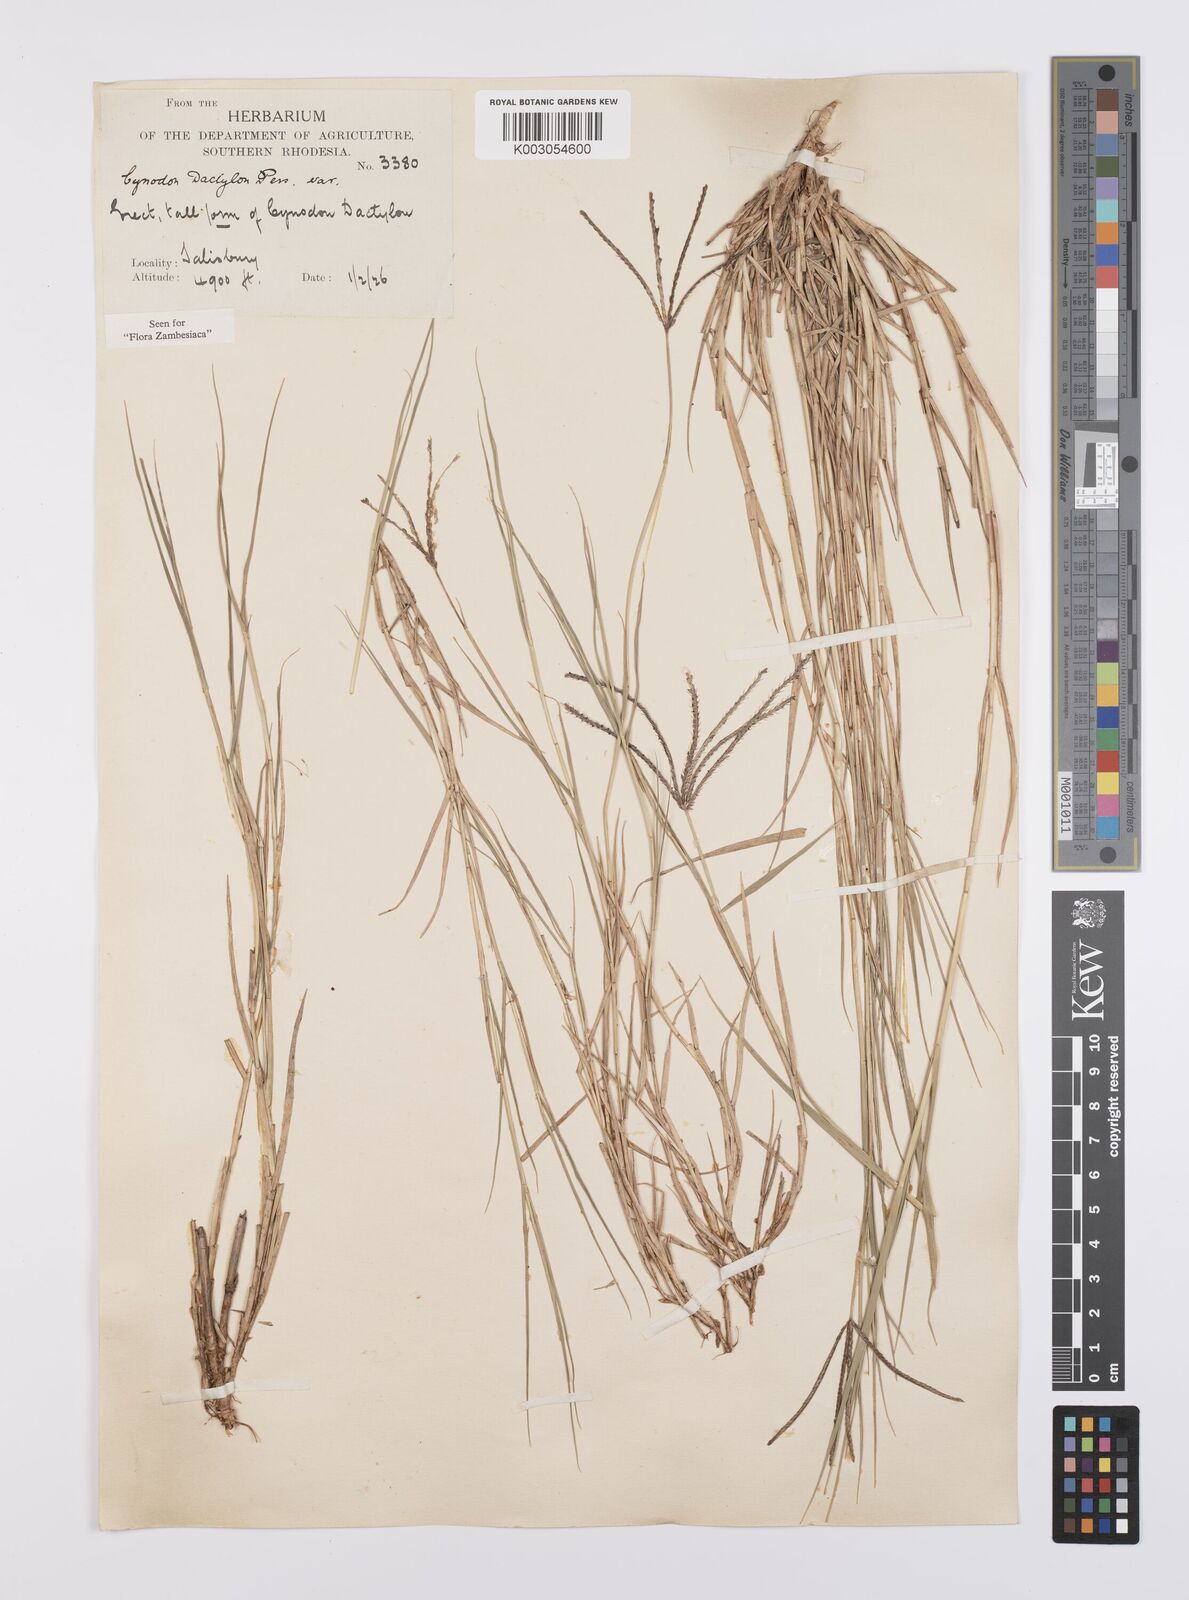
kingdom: Plantae
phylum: Tracheophyta
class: Liliopsida
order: Poales
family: Poaceae
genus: Cynodon
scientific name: Cynodon dactylon
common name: Bermuda grass
